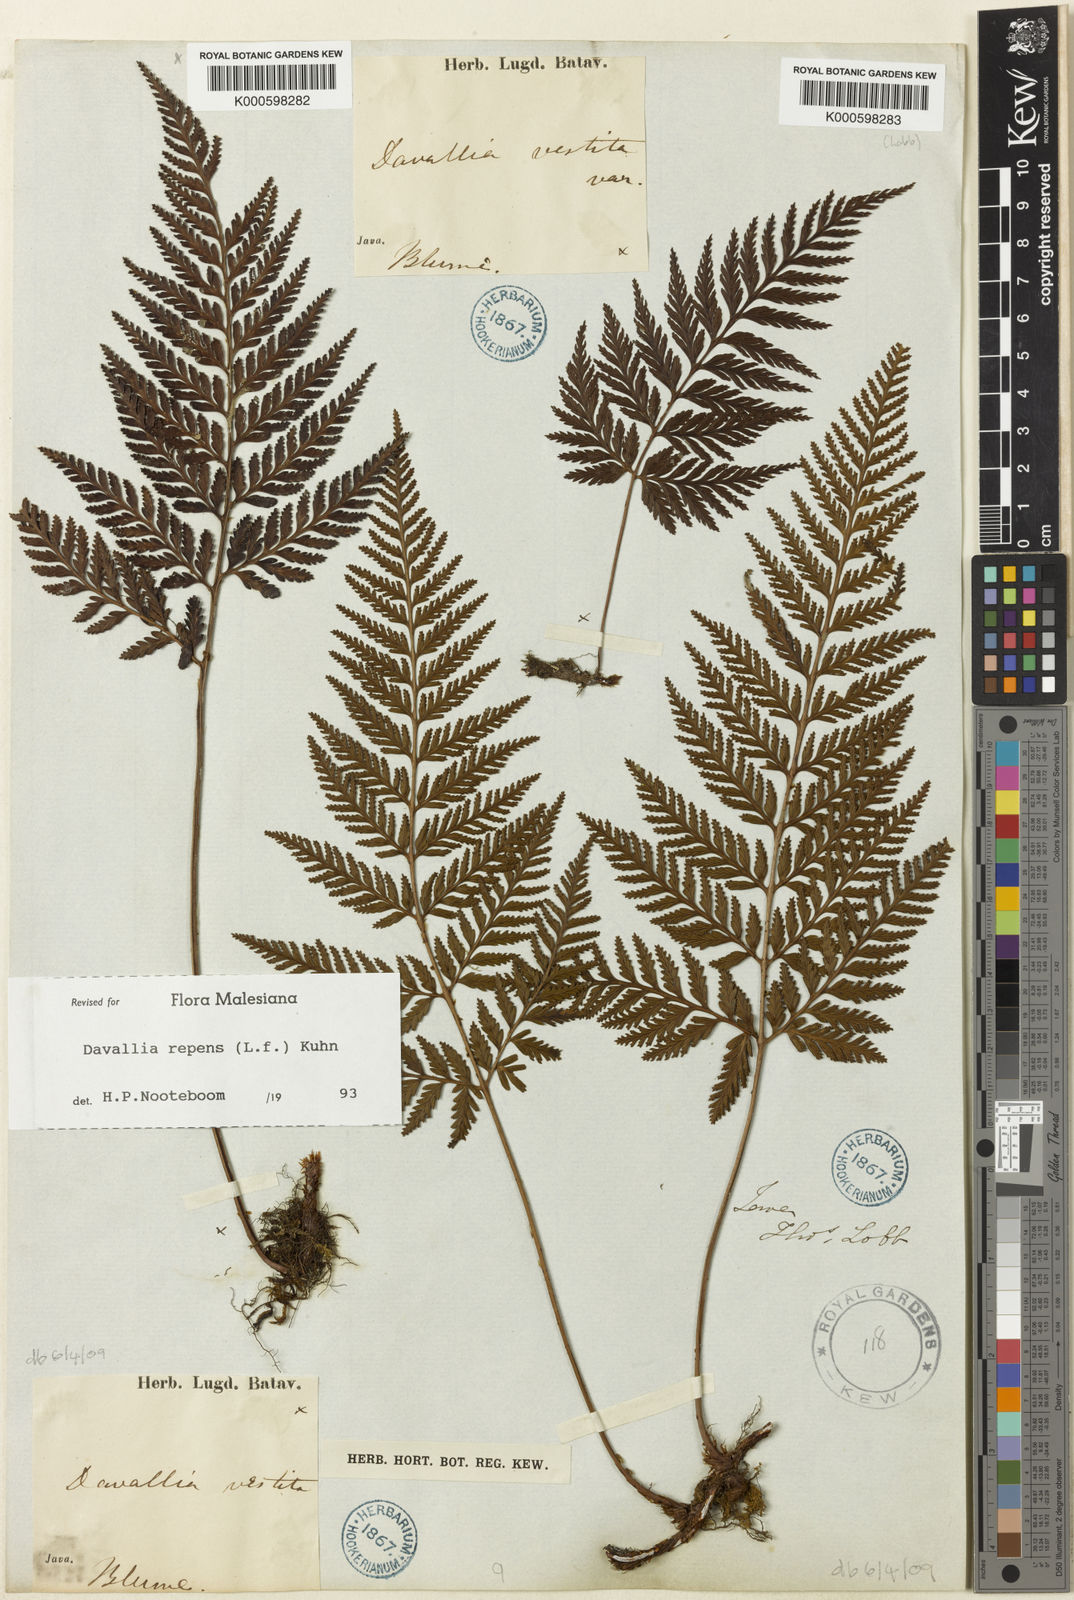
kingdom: Plantae
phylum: Tracheophyta
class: Polypodiopsida
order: Polypodiales
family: Davalliaceae
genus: Davallia
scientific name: Davallia repens
